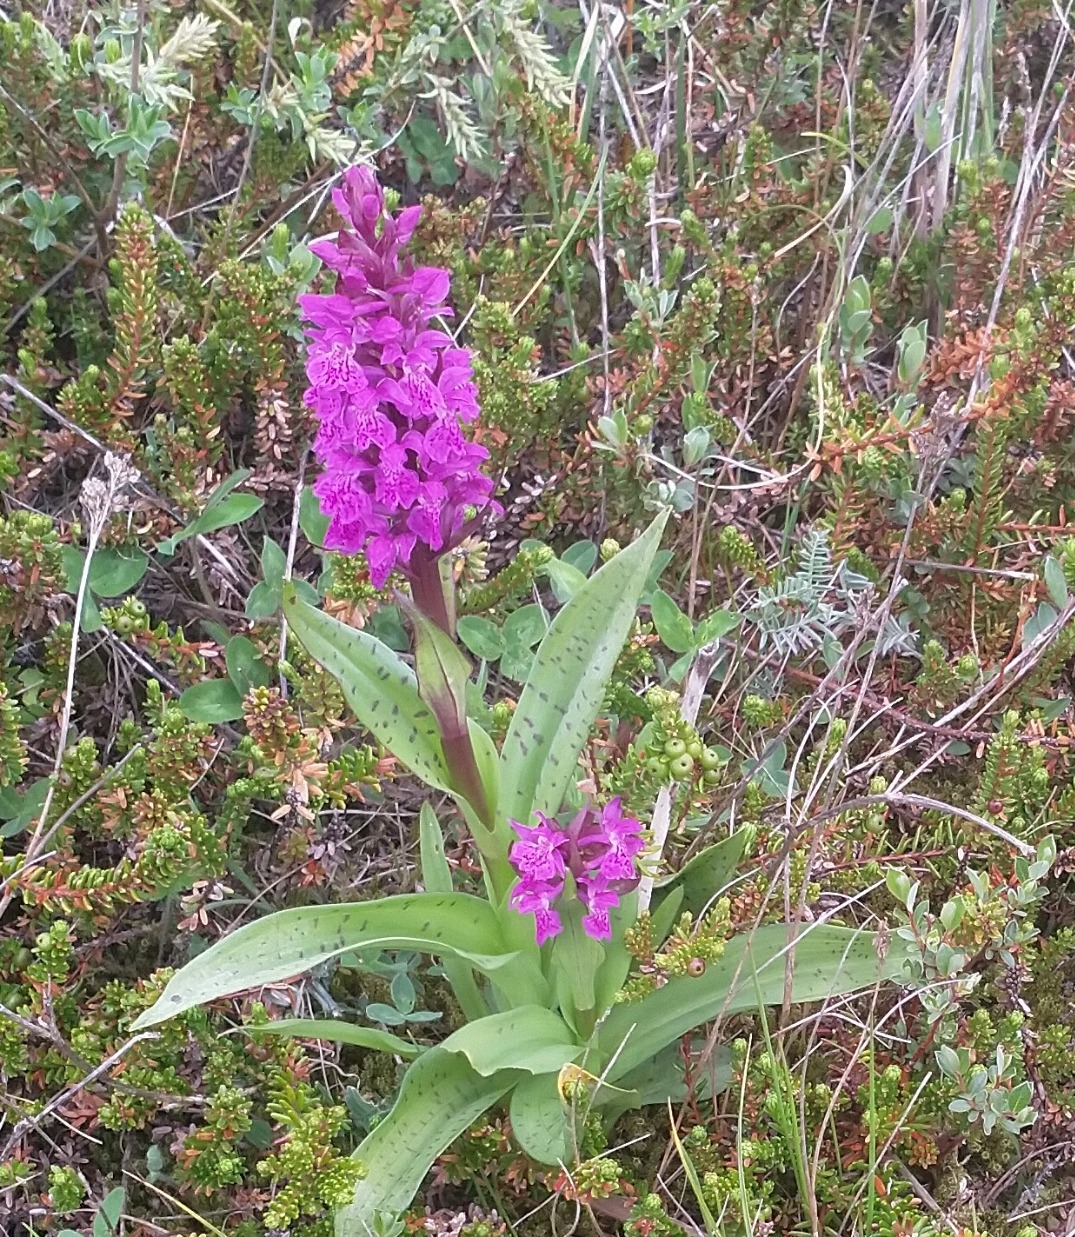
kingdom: Plantae
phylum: Tracheophyta
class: Liliopsida
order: Asparagales
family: Orchidaceae
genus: Dactylorhiza
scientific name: Dactylorhiza majalis
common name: Maj-gøgeurt
